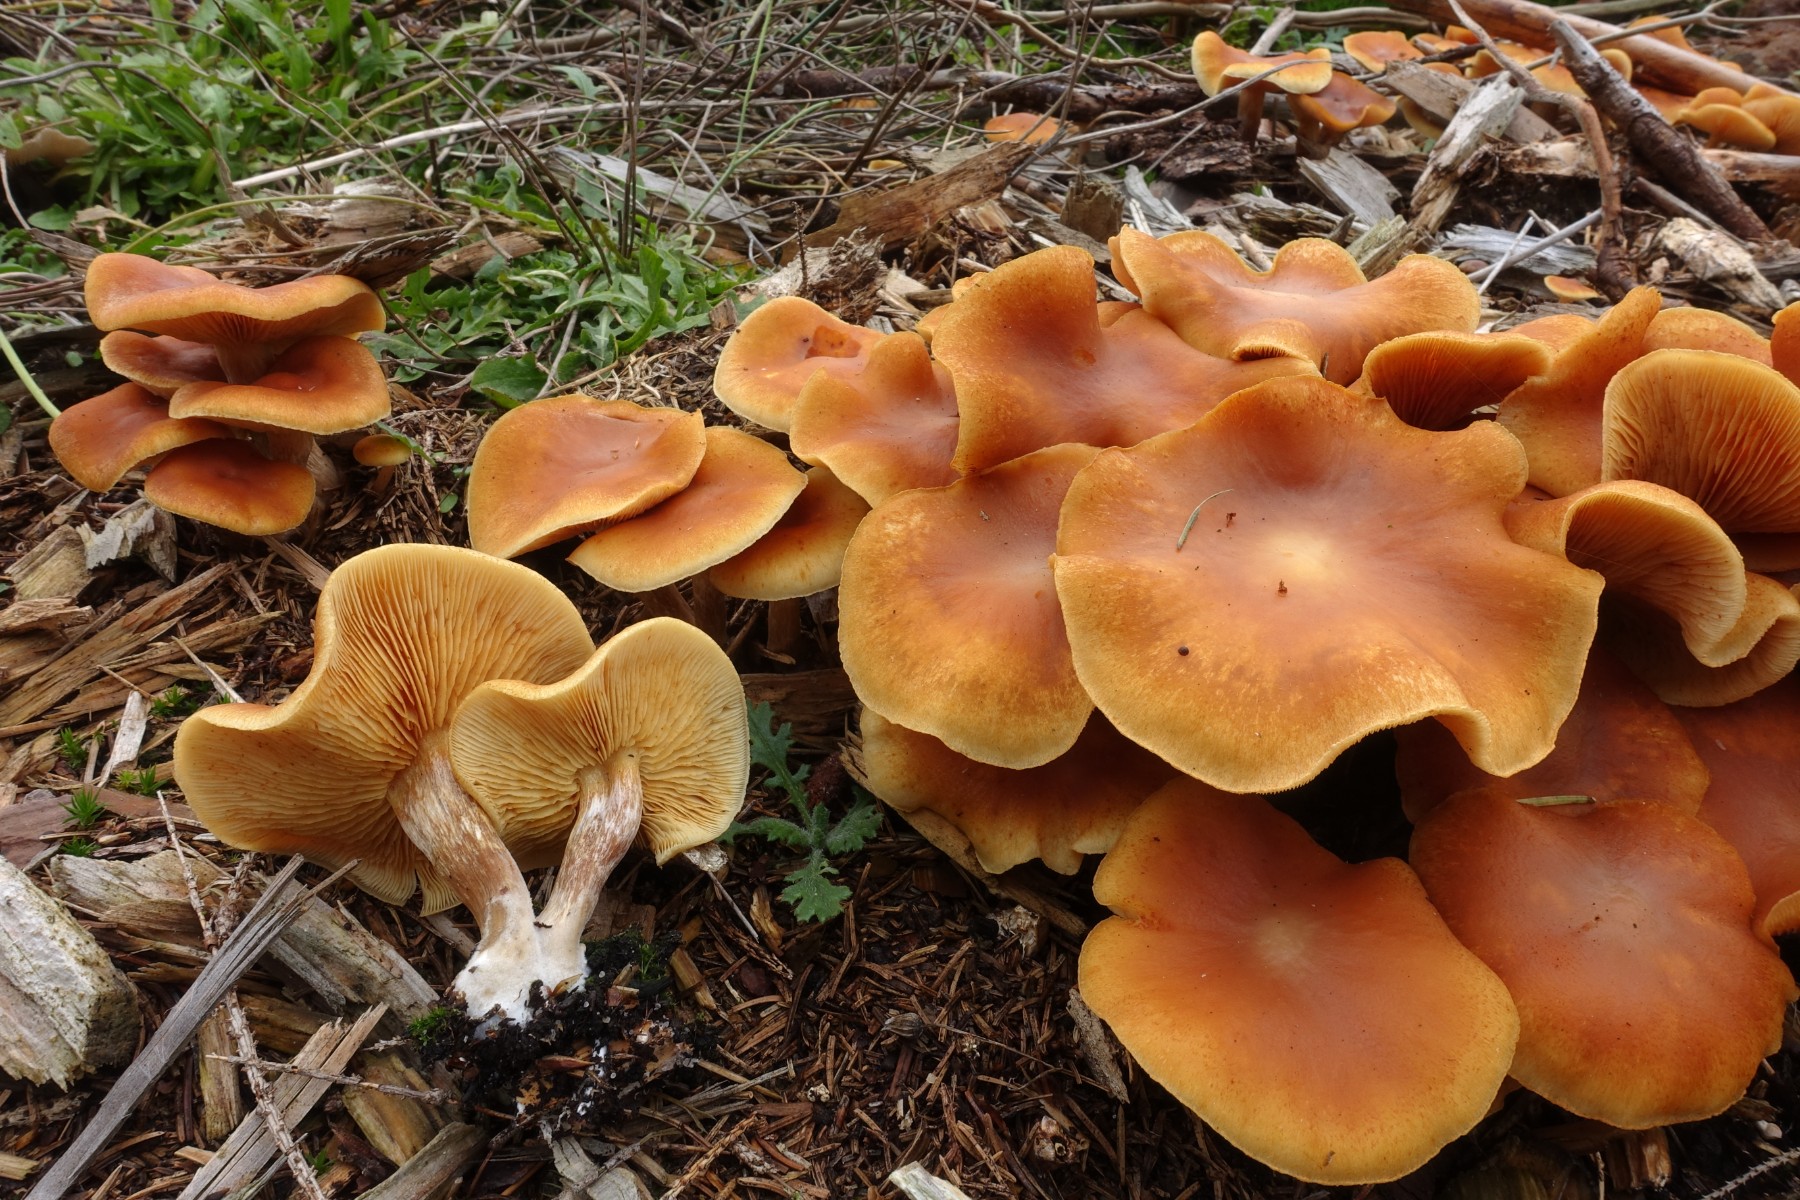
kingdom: Fungi
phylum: Basidiomycota
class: Agaricomycetes
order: Agaricales
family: Hymenogastraceae
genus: Gymnopilus
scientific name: Gymnopilus penetrans
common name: plettet flammehat
